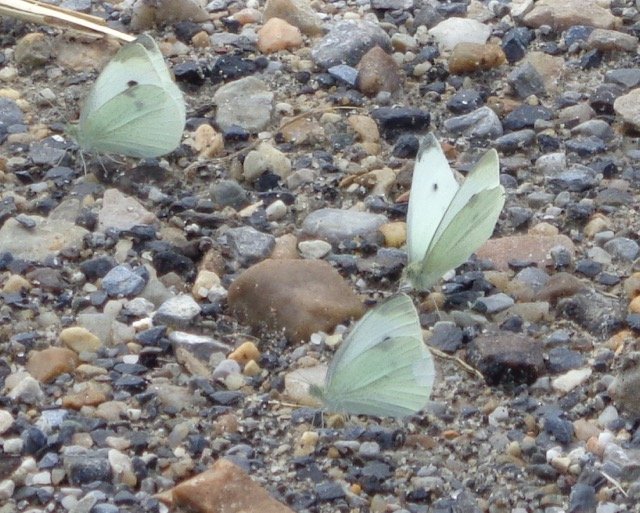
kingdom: Animalia
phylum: Arthropoda
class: Insecta
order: Lepidoptera
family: Pieridae
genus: Pieris
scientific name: Pieris rapae
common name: Cabbage White
